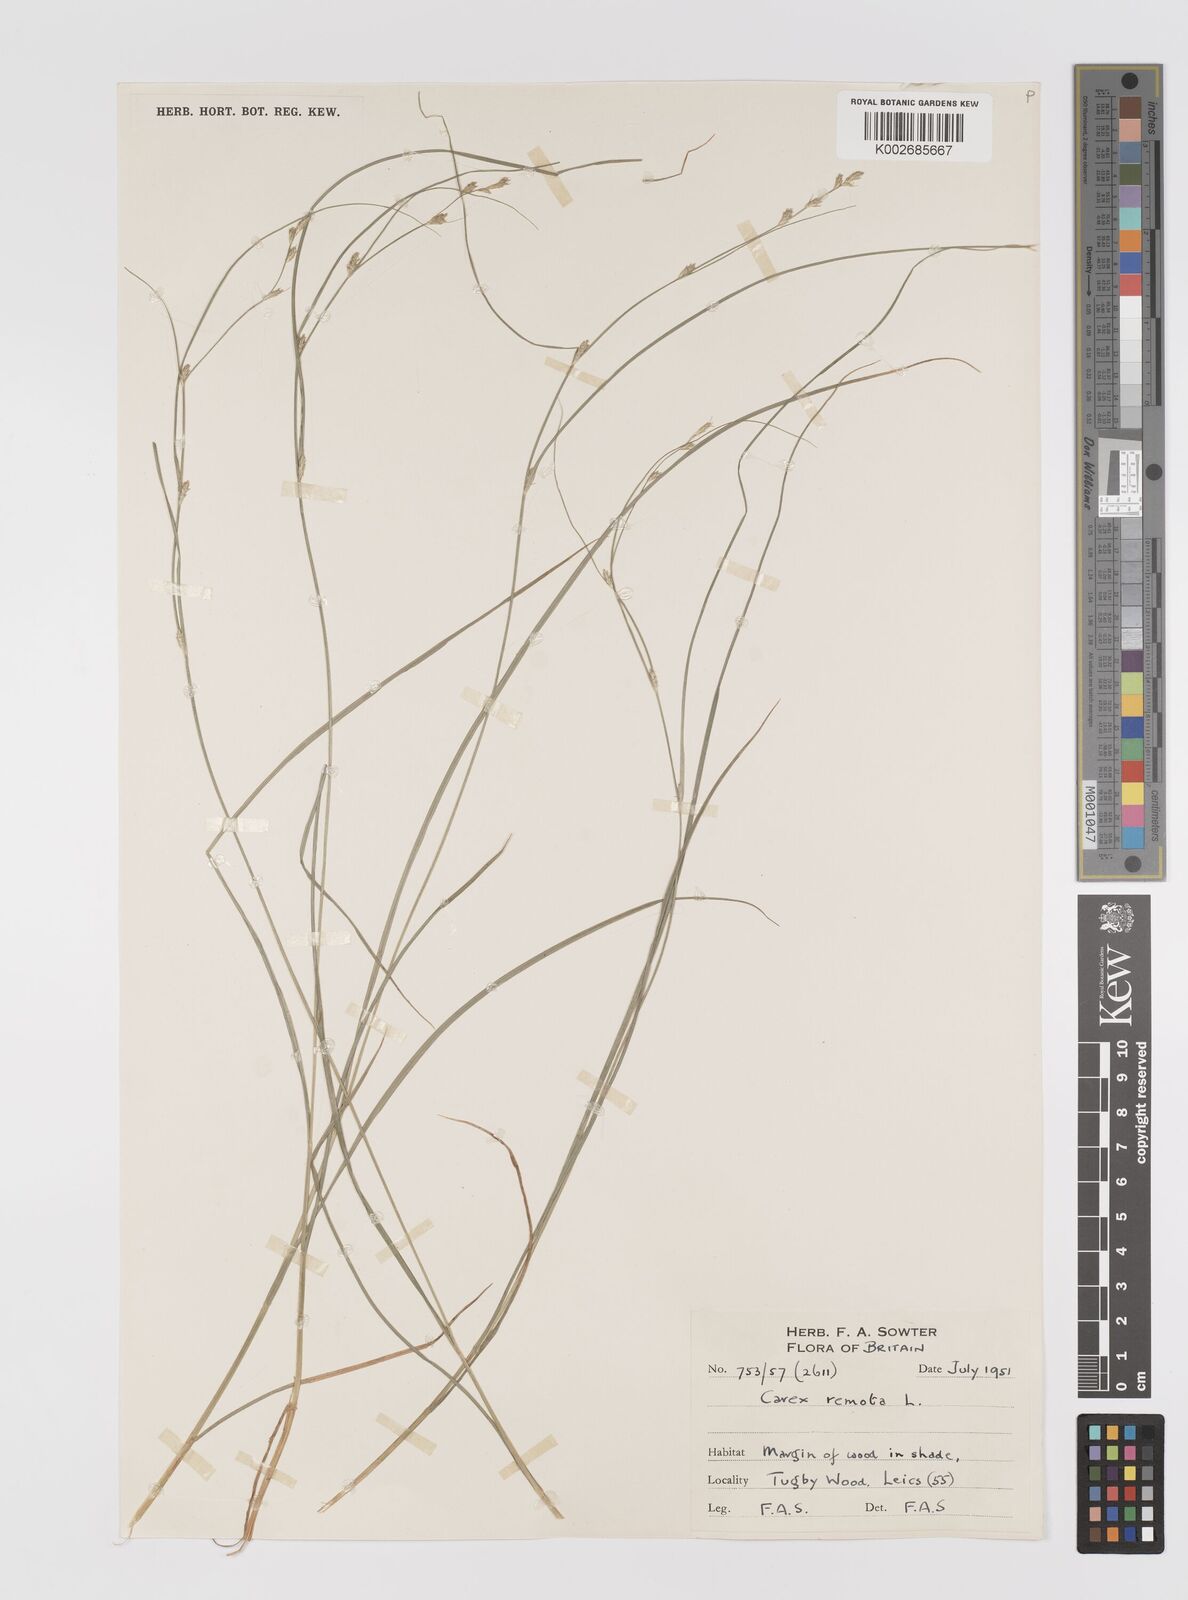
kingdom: Plantae
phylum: Tracheophyta
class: Liliopsida
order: Poales
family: Cyperaceae
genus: Carex
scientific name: Carex remota
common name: Remote sedge
